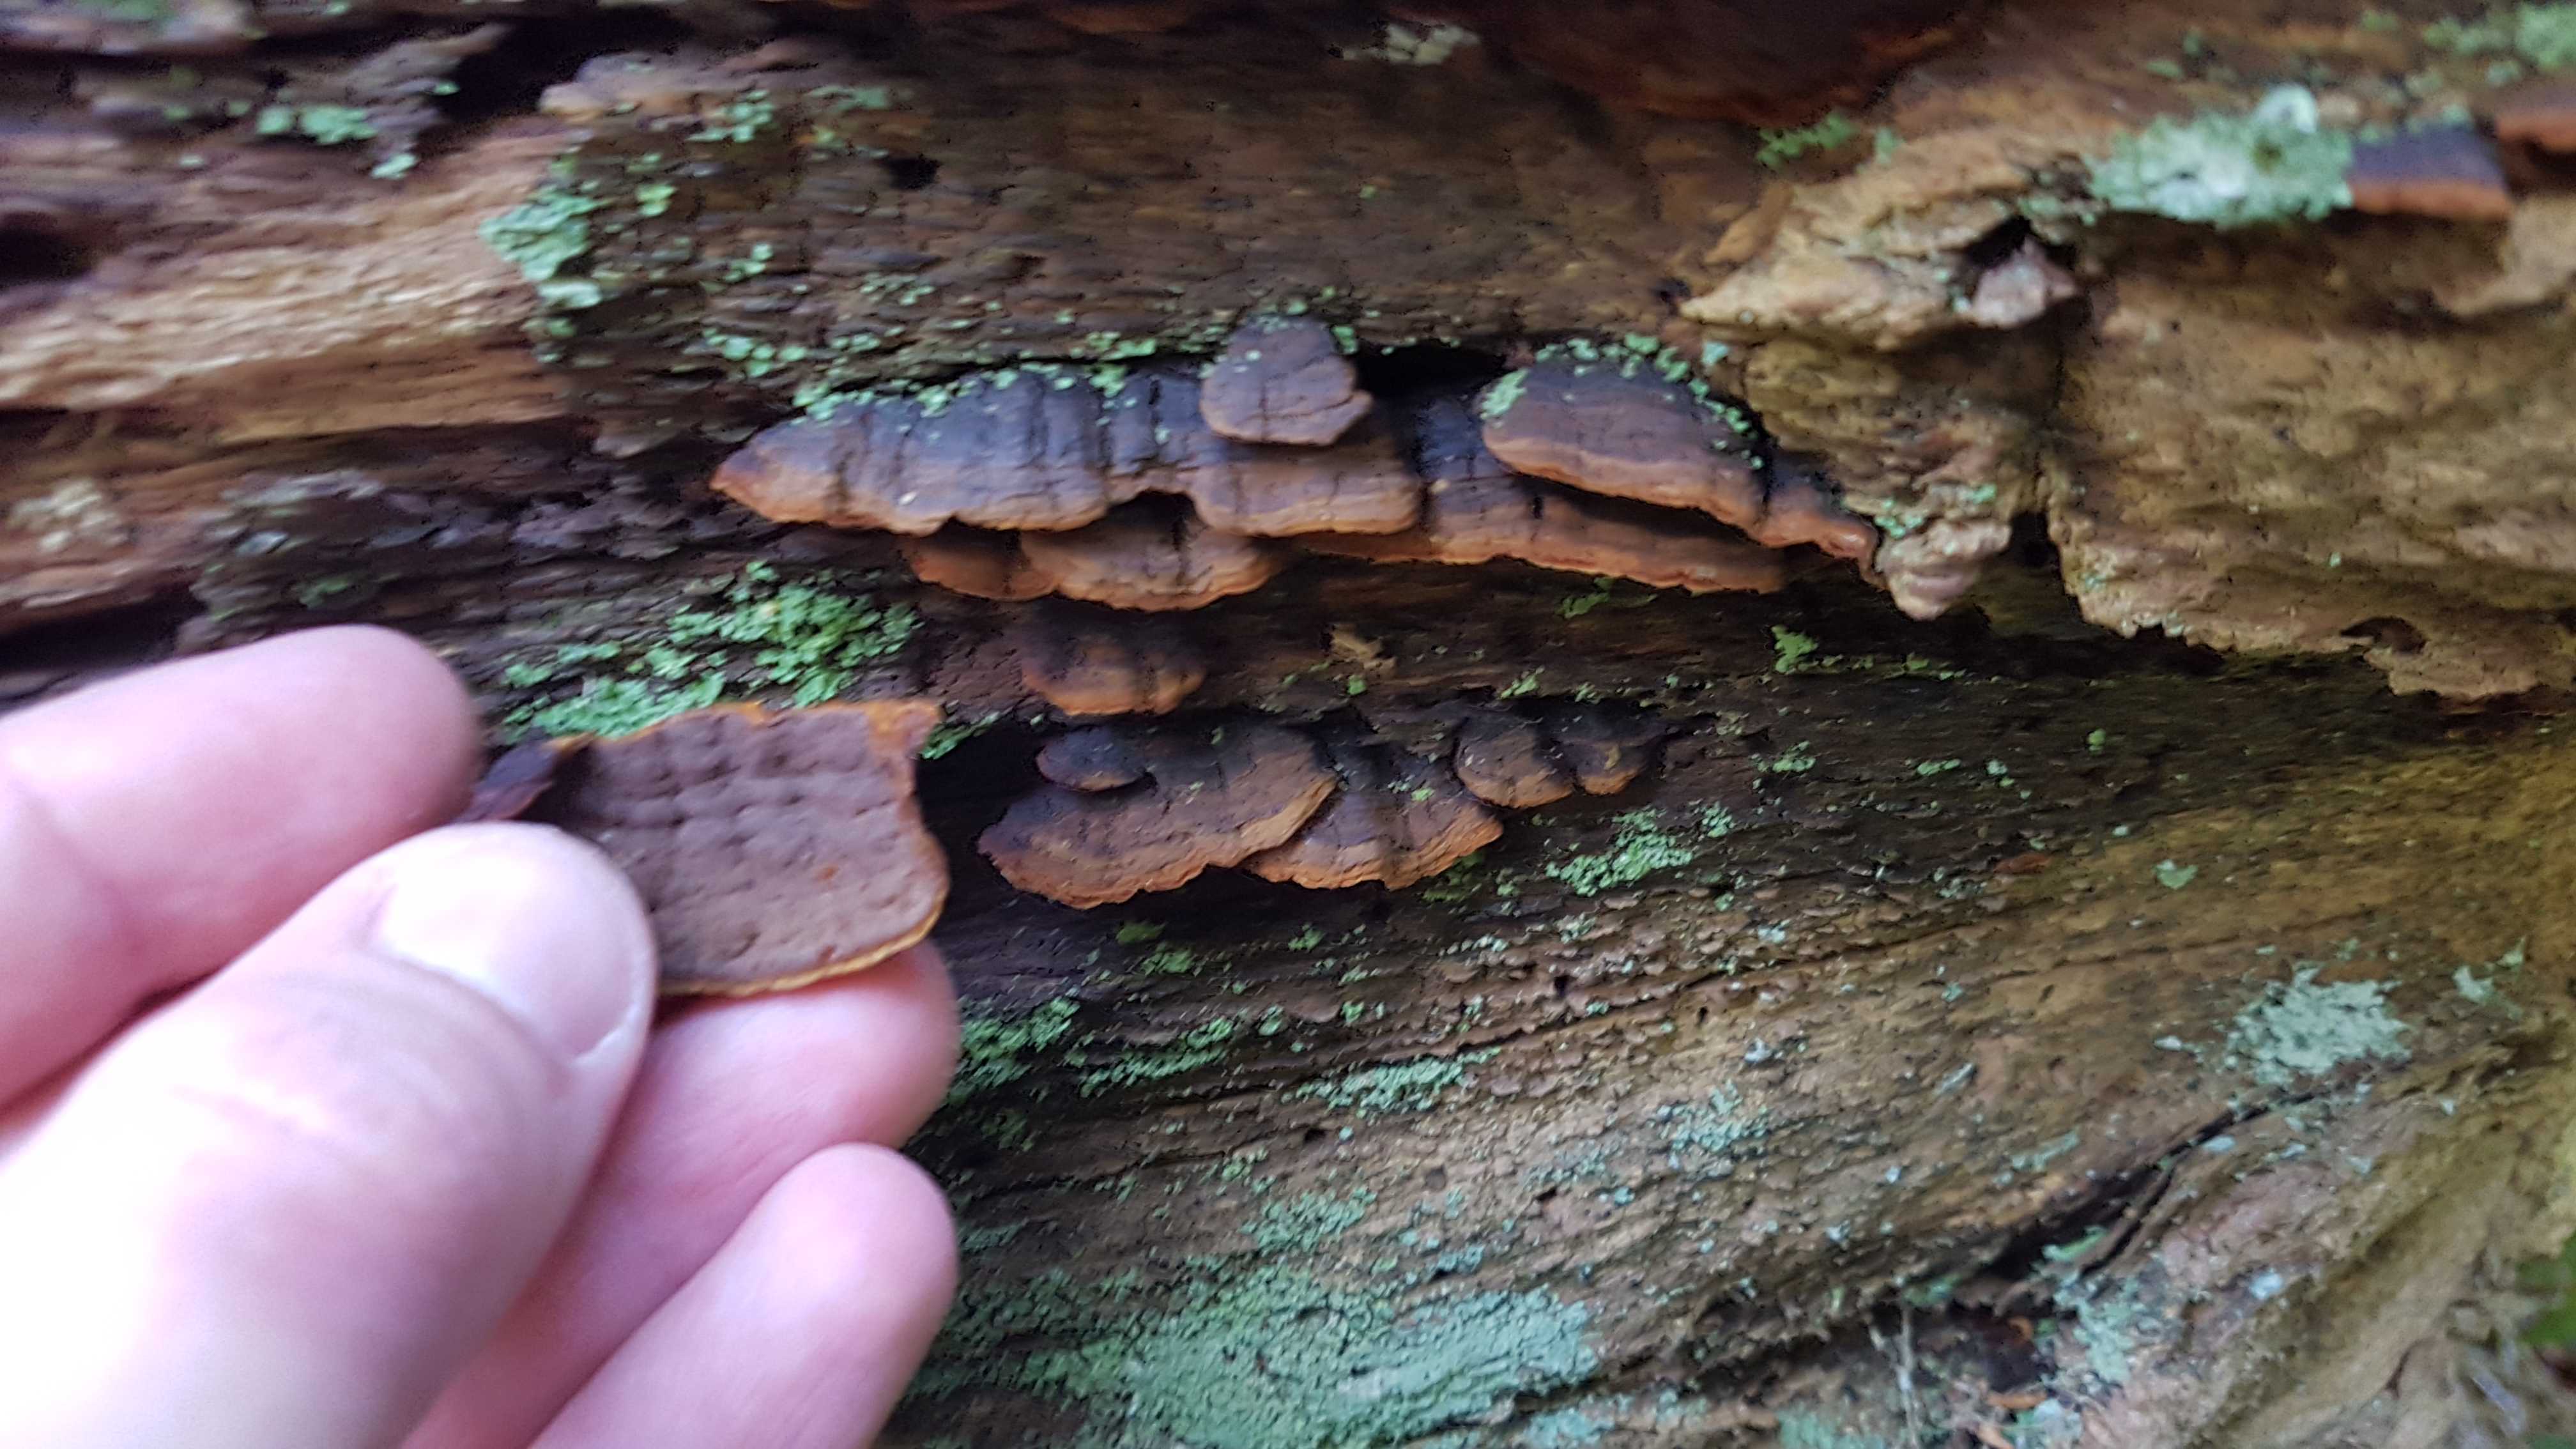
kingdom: Fungi
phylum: Basidiomycota
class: Agaricomycetes
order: Hymenochaetales
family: Hymenochaetaceae
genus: Hymenochaete
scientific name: Hymenochaete rubiginosa
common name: stiv ruslædersvamp
